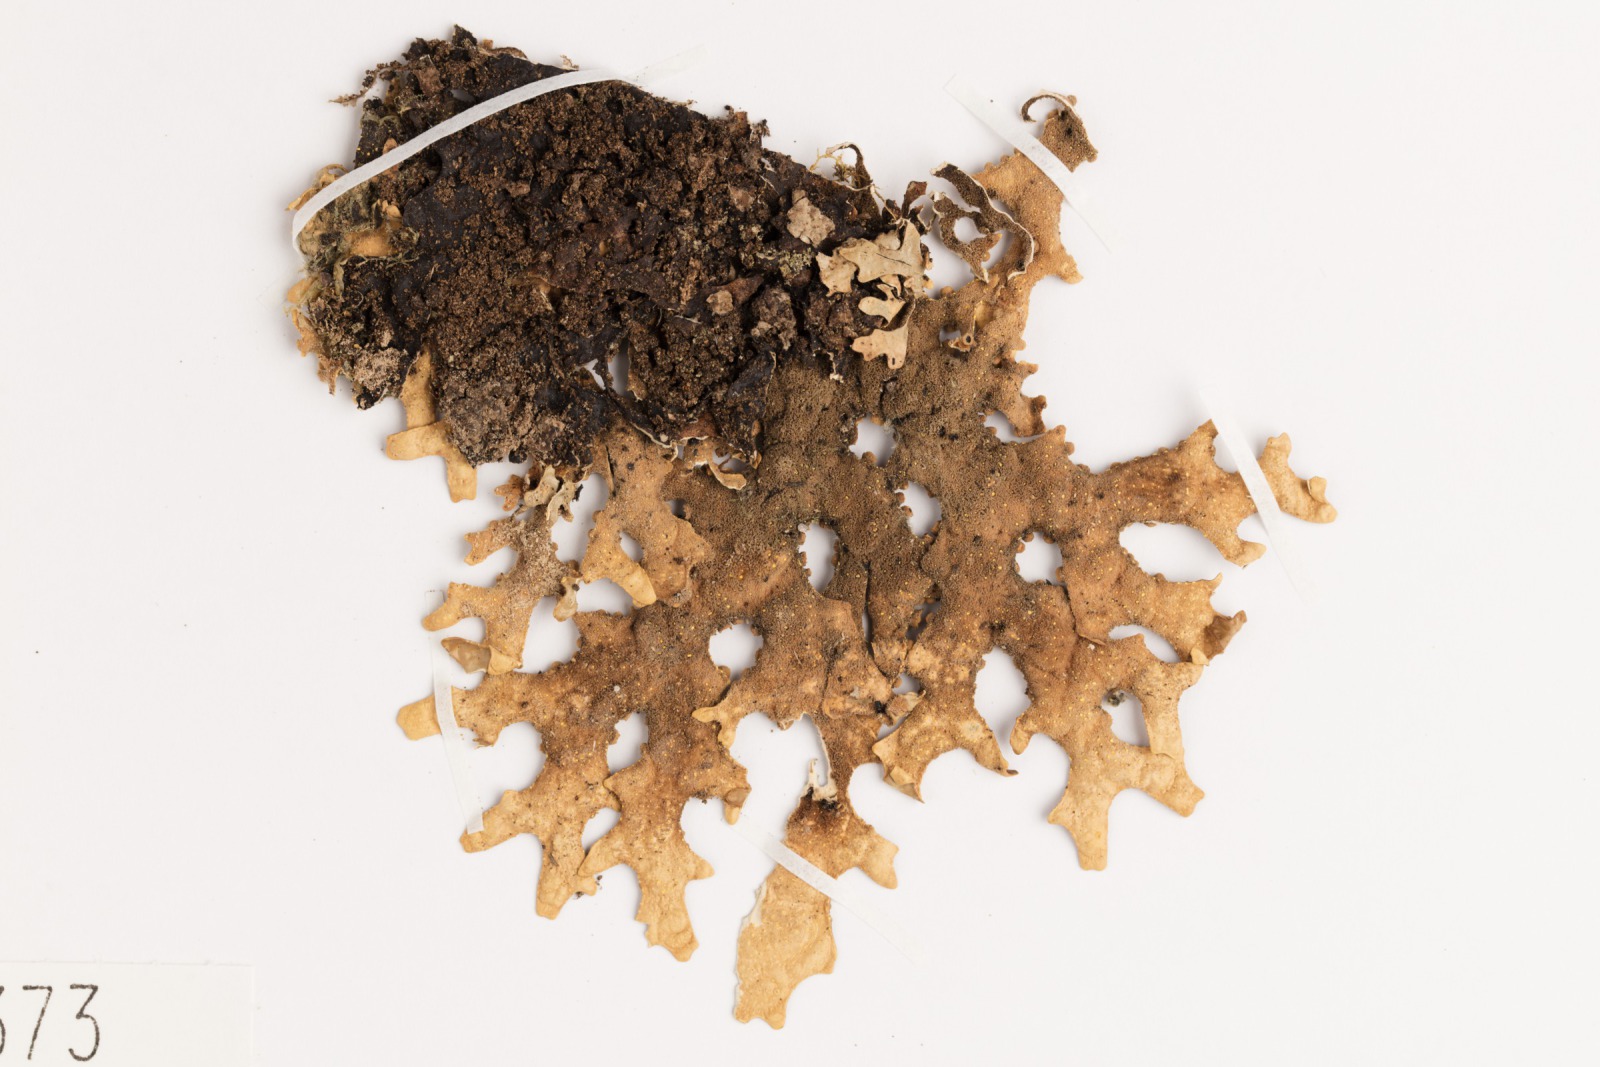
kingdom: Fungi
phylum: Ascomycota
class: Lecanoromycetes
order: Peltigerales
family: Lobariaceae
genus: Pseudocyphellaria
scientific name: Pseudocyphellaria carpoloma
